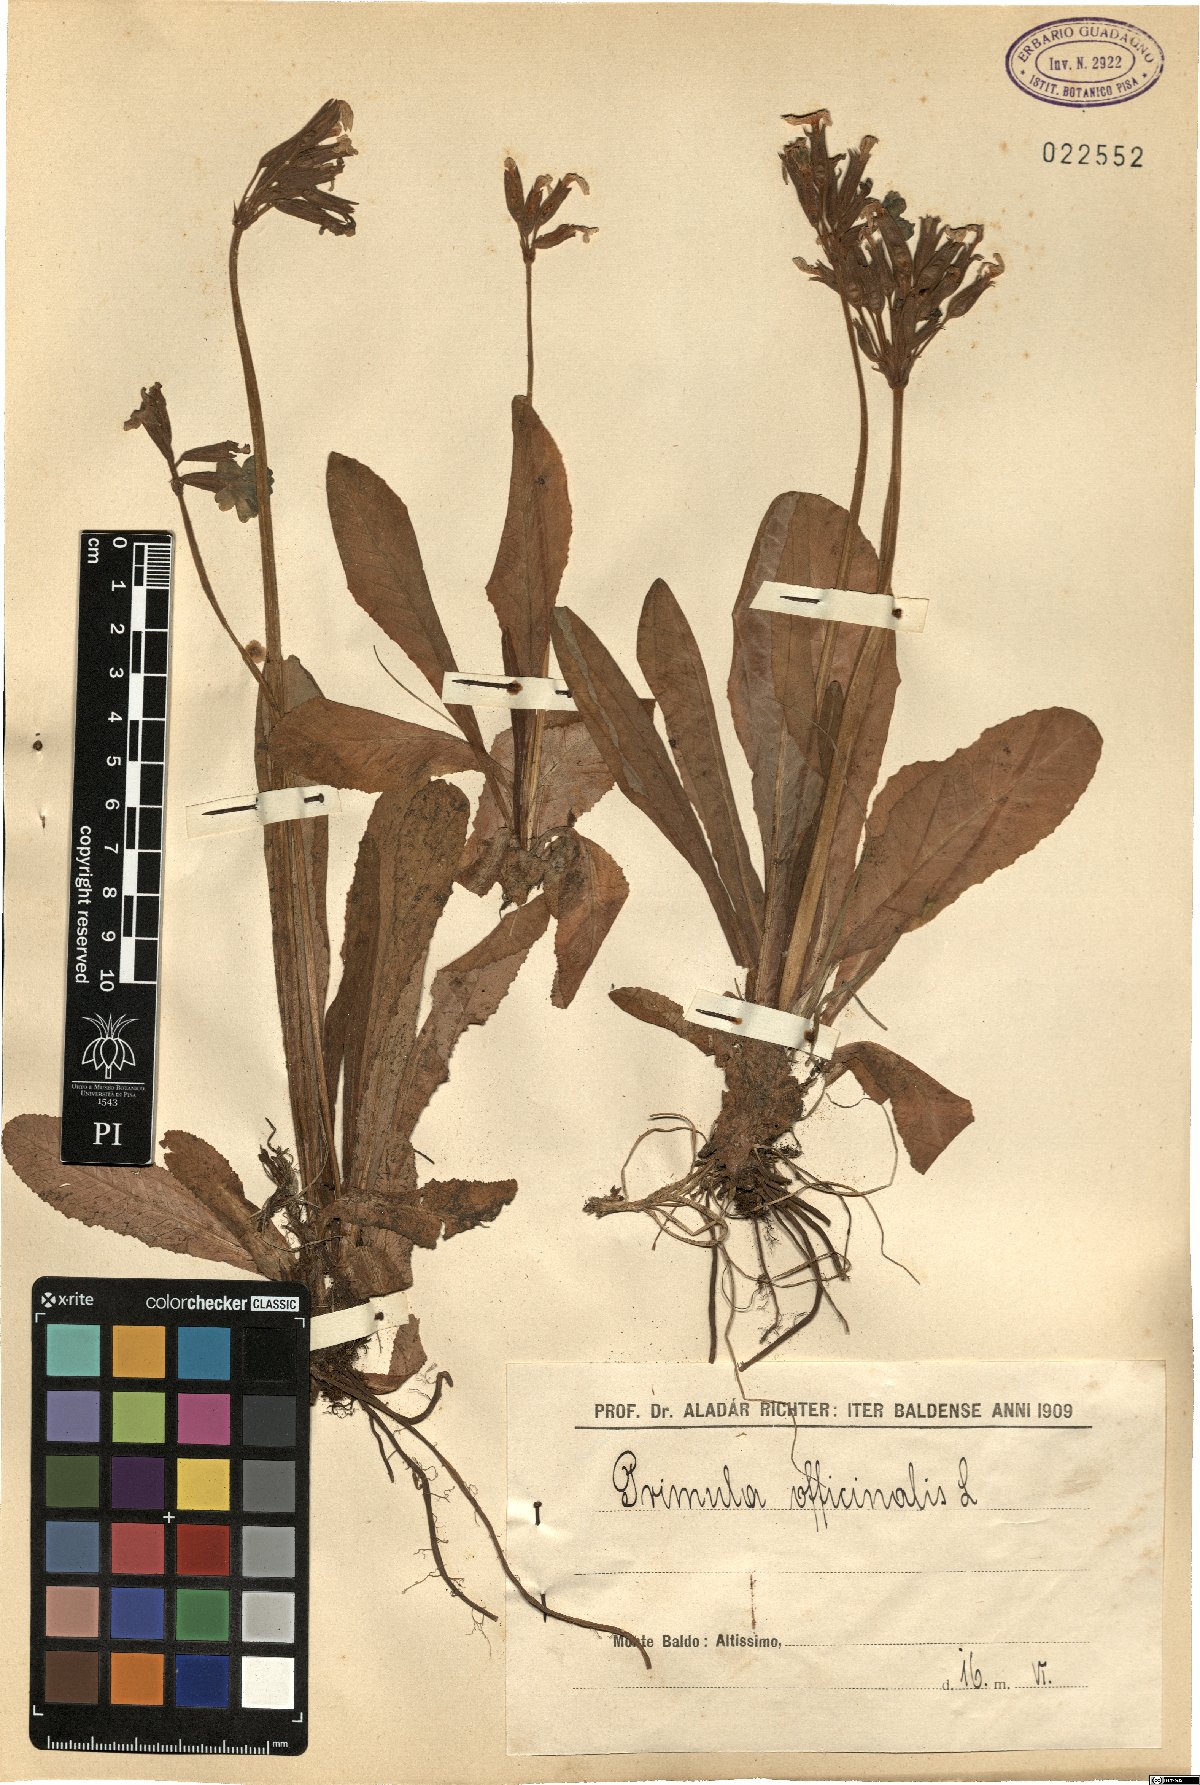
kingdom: Plantae
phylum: Tracheophyta
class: Magnoliopsida
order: Ericales
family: Primulaceae
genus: Primula
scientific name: Primula veris
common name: Cowslip
